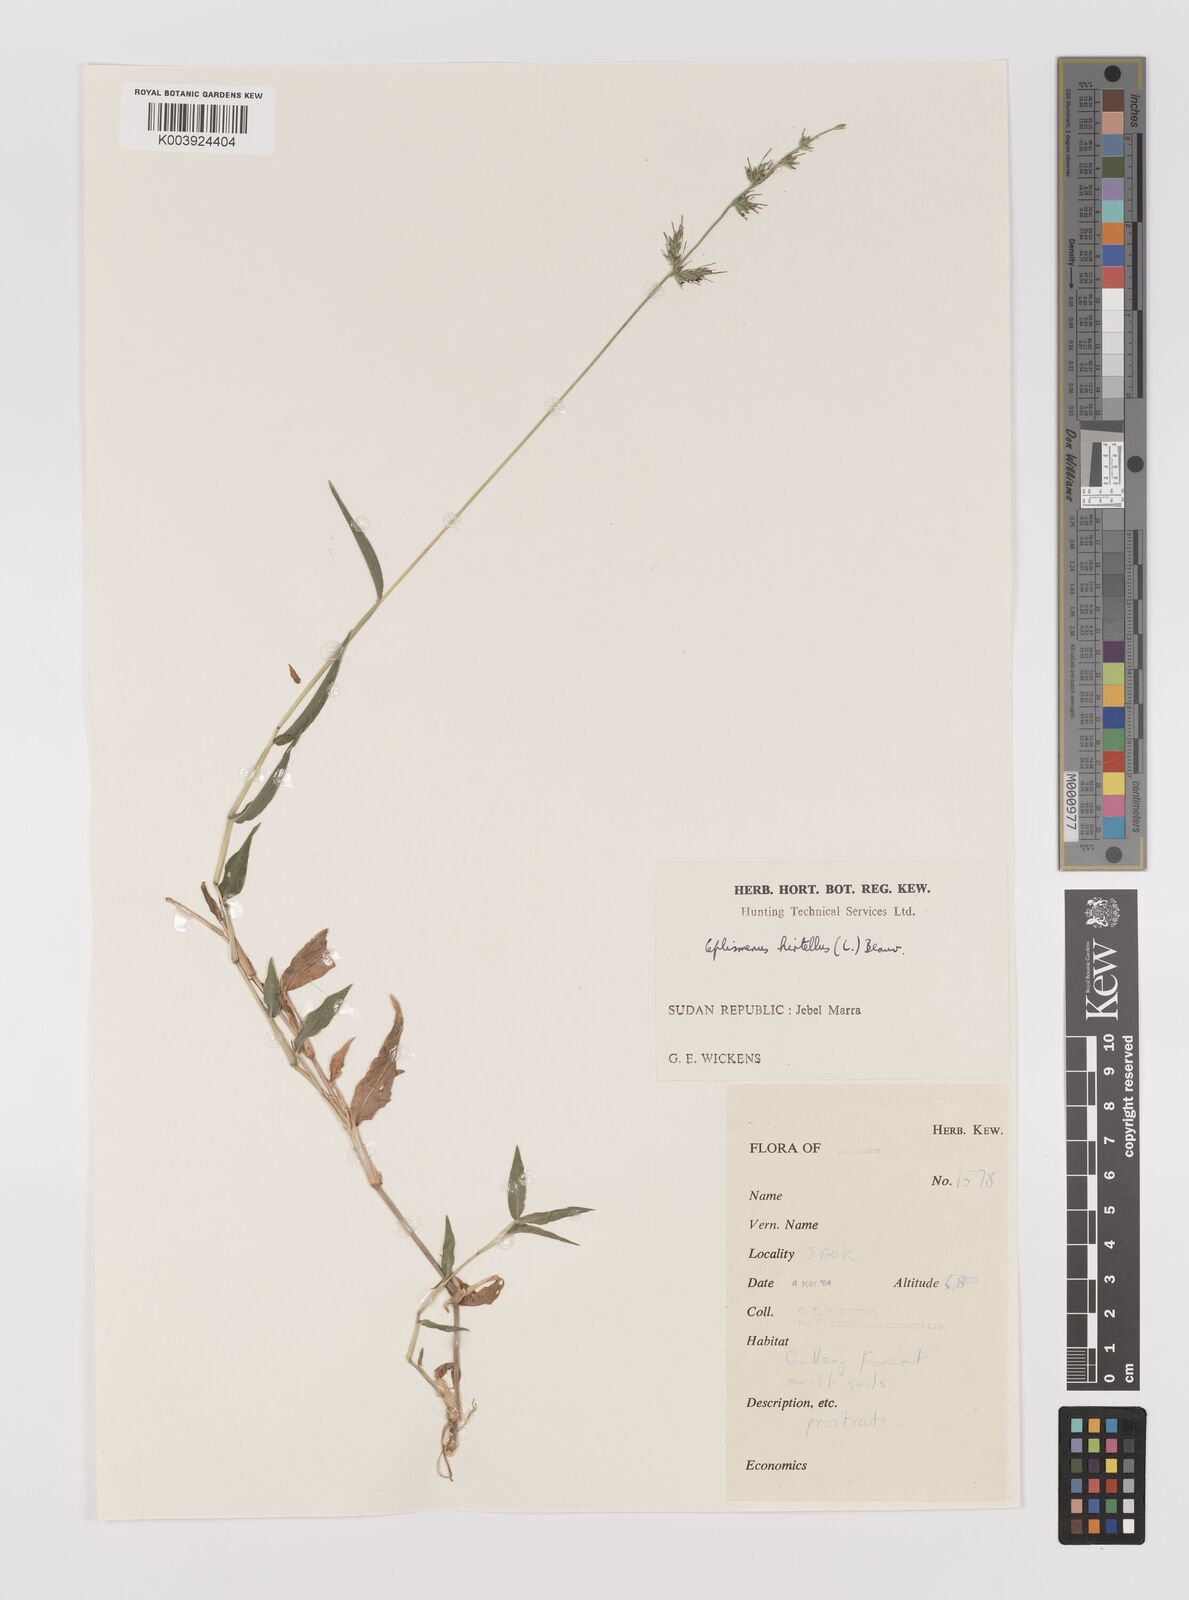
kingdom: Plantae
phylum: Tracheophyta
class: Liliopsida
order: Poales
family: Poaceae
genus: Oplismenus
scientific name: Oplismenus hirtellus
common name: Basketgrass
